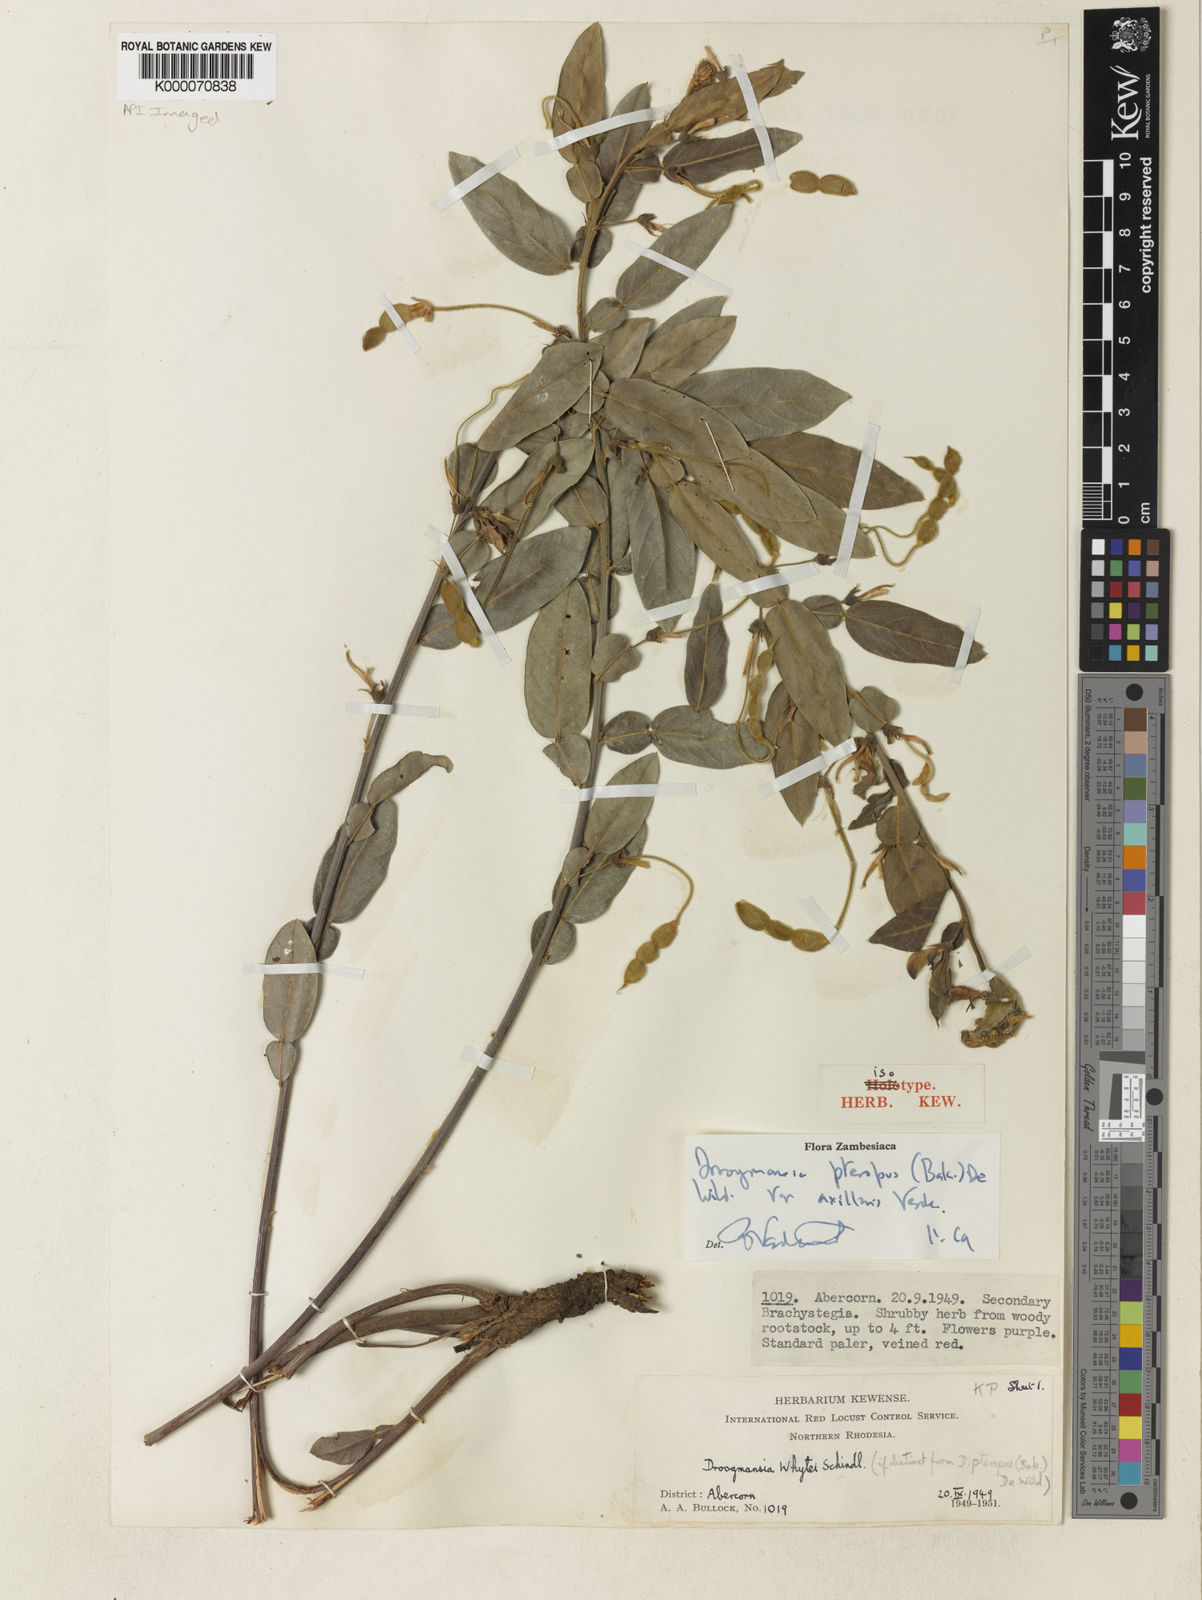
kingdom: Plantae
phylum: Tracheophyta
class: Magnoliopsida
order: Fabales
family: Fabaceae
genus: Droogmansia
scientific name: Droogmansia pteropus
